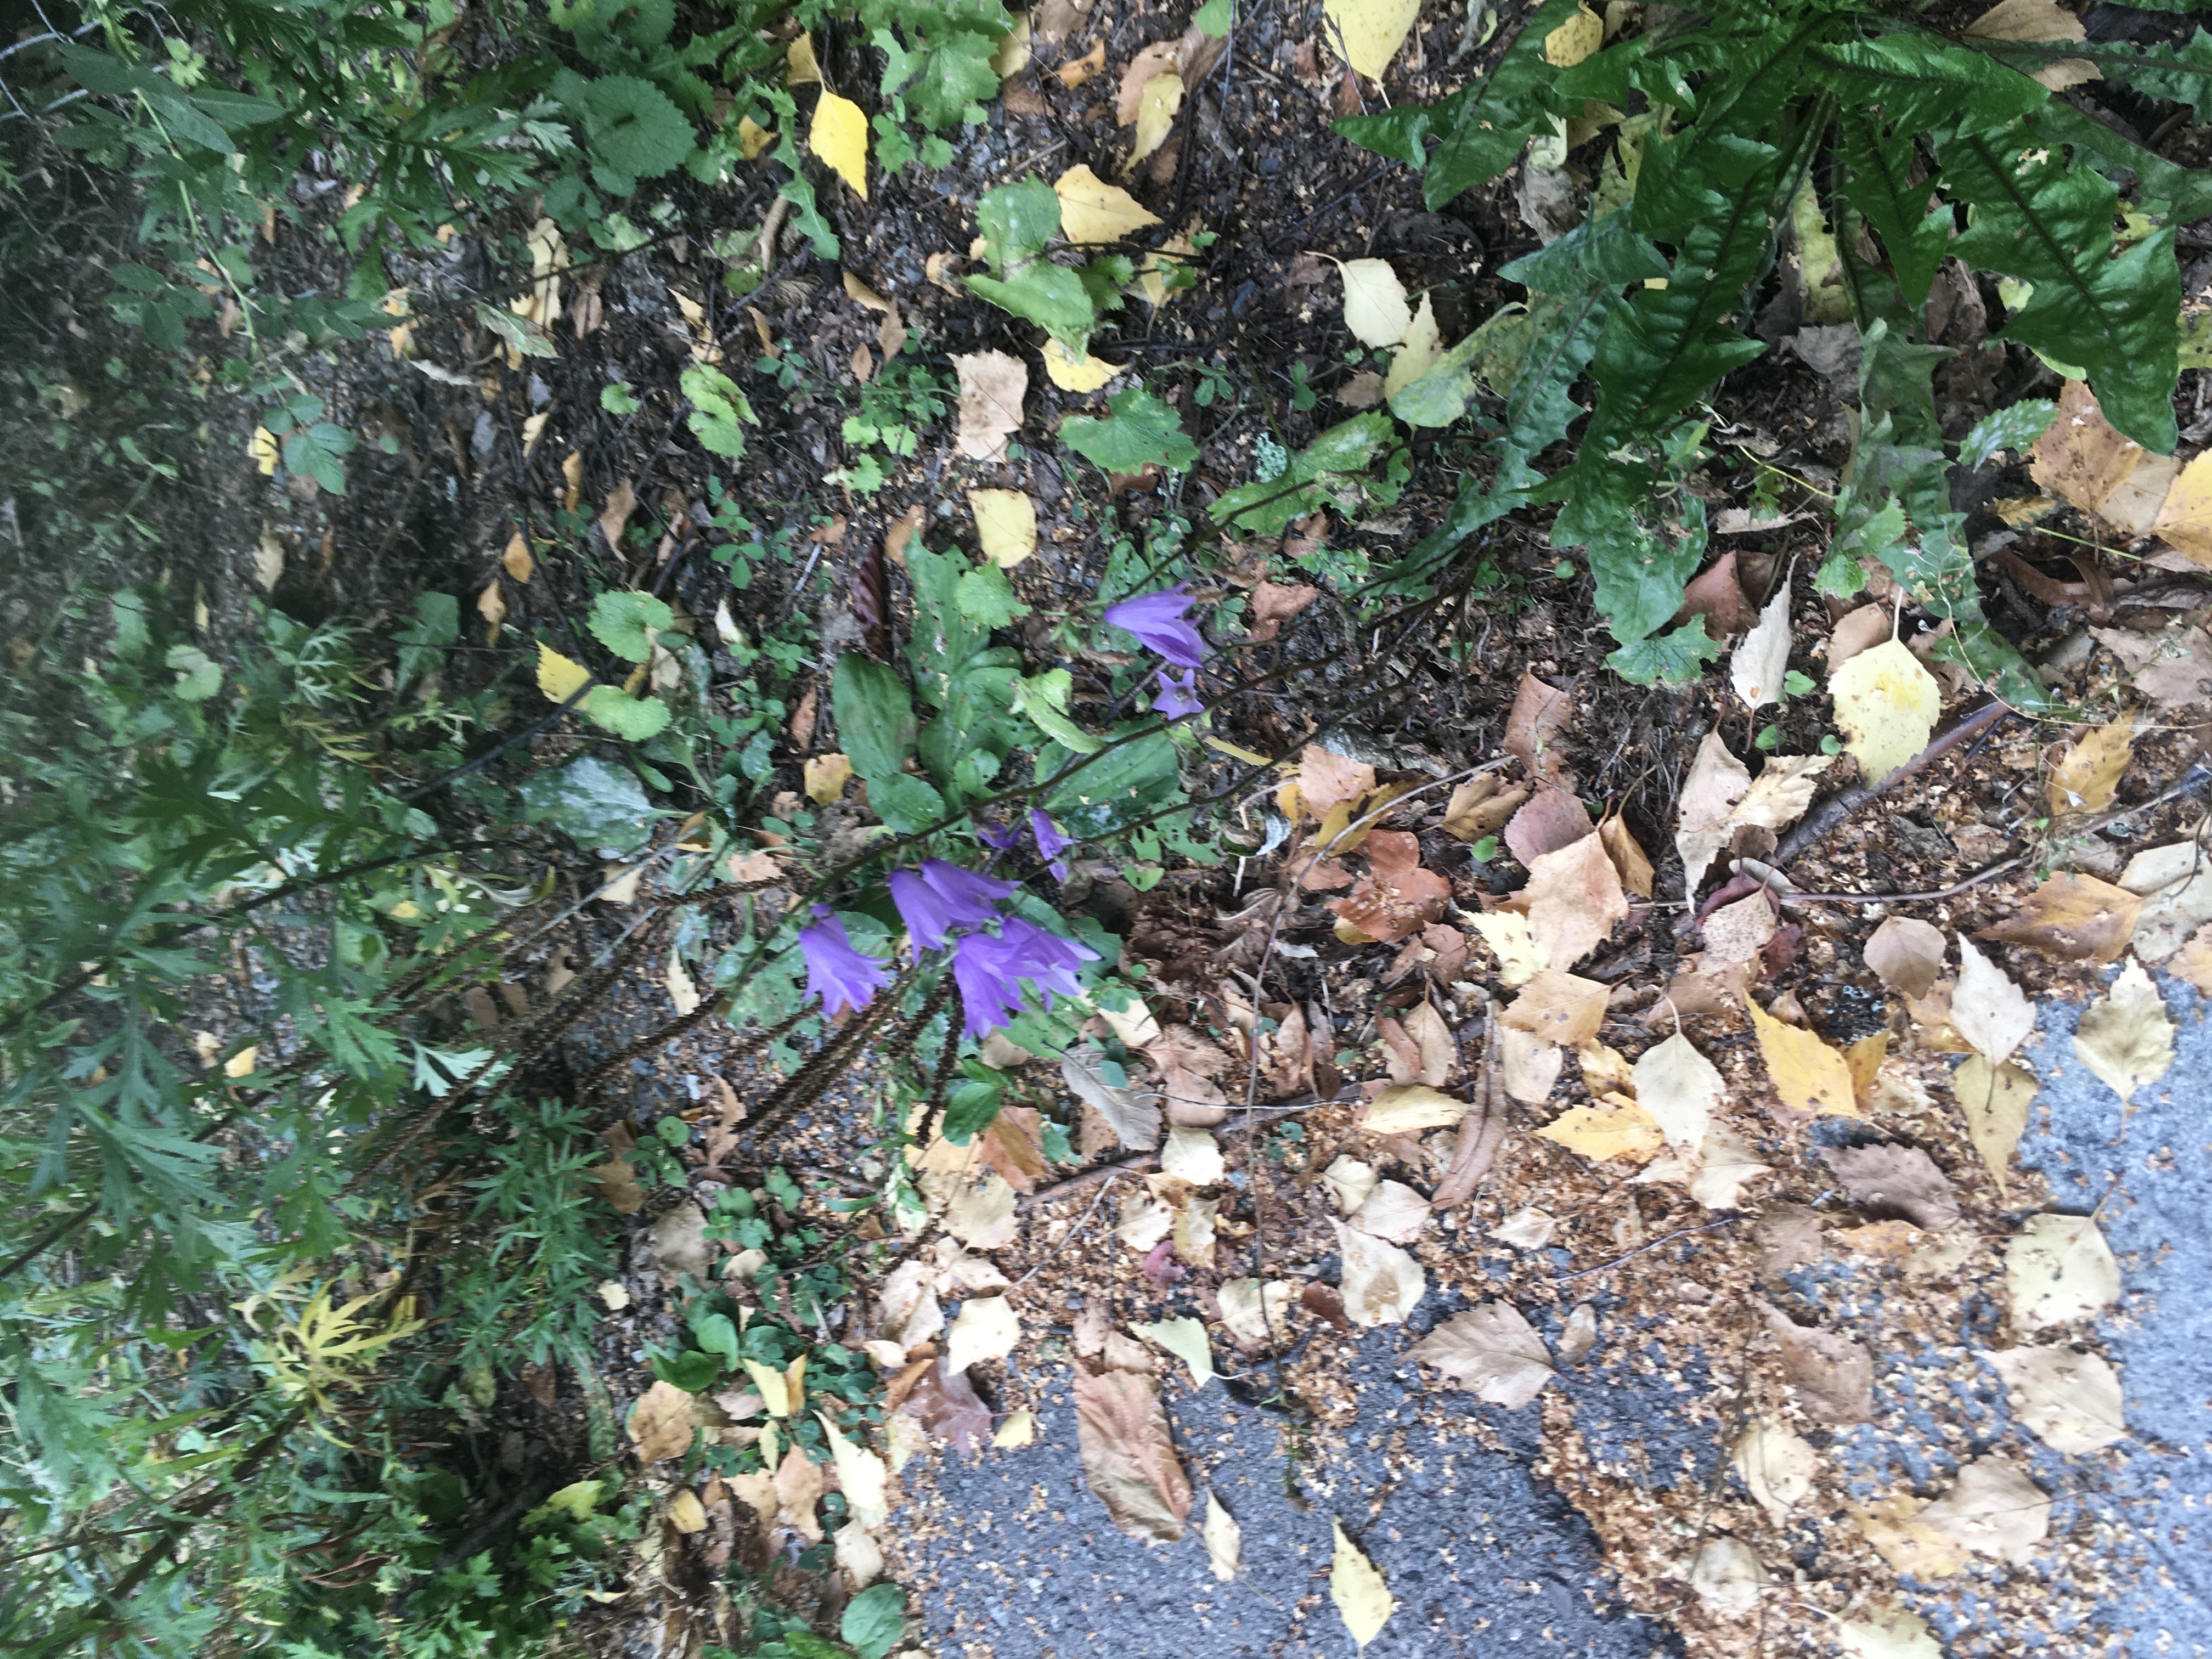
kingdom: Plantae
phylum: Tracheophyta
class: Magnoliopsida
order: Asterales
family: Campanulaceae
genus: Campanula
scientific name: Campanula rapunculoides
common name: ugrasklokke
